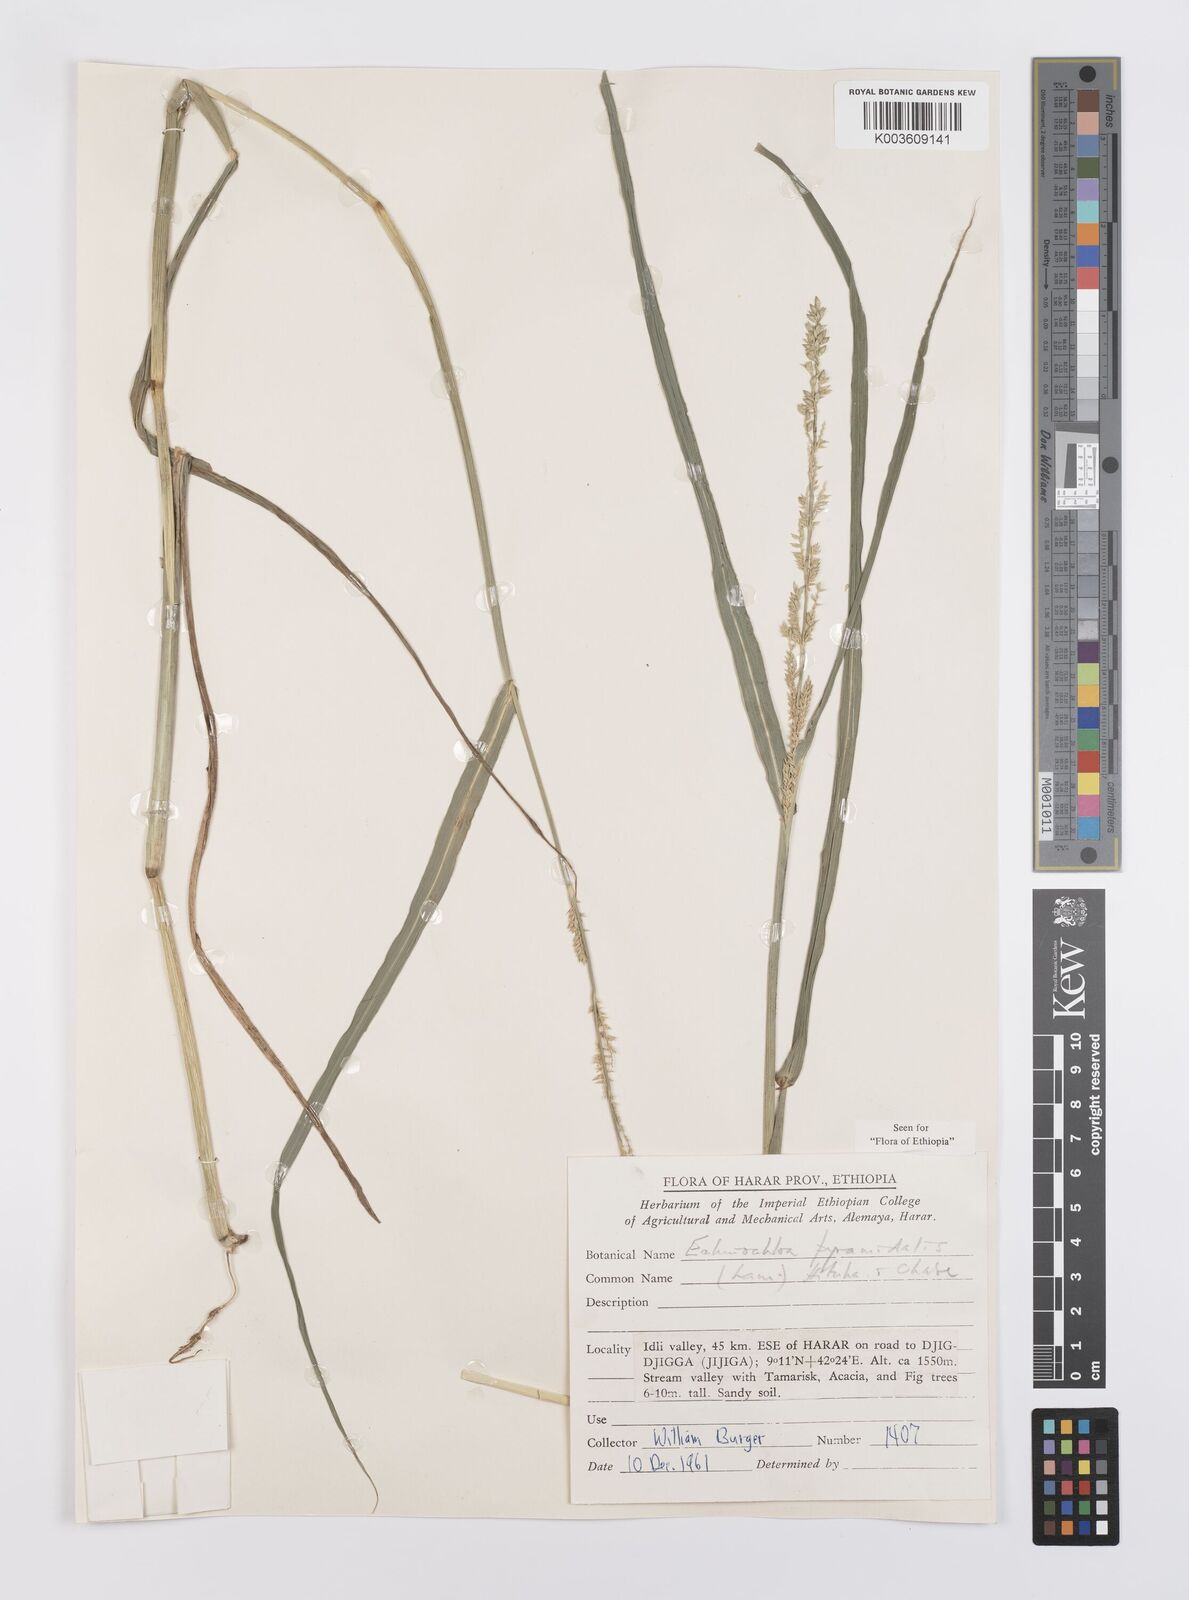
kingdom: Plantae
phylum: Tracheophyta
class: Liliopsida
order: Poales
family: Poaceae
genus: Echinochloa
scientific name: Echinochloa pyramidalis
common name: Antelope grass
